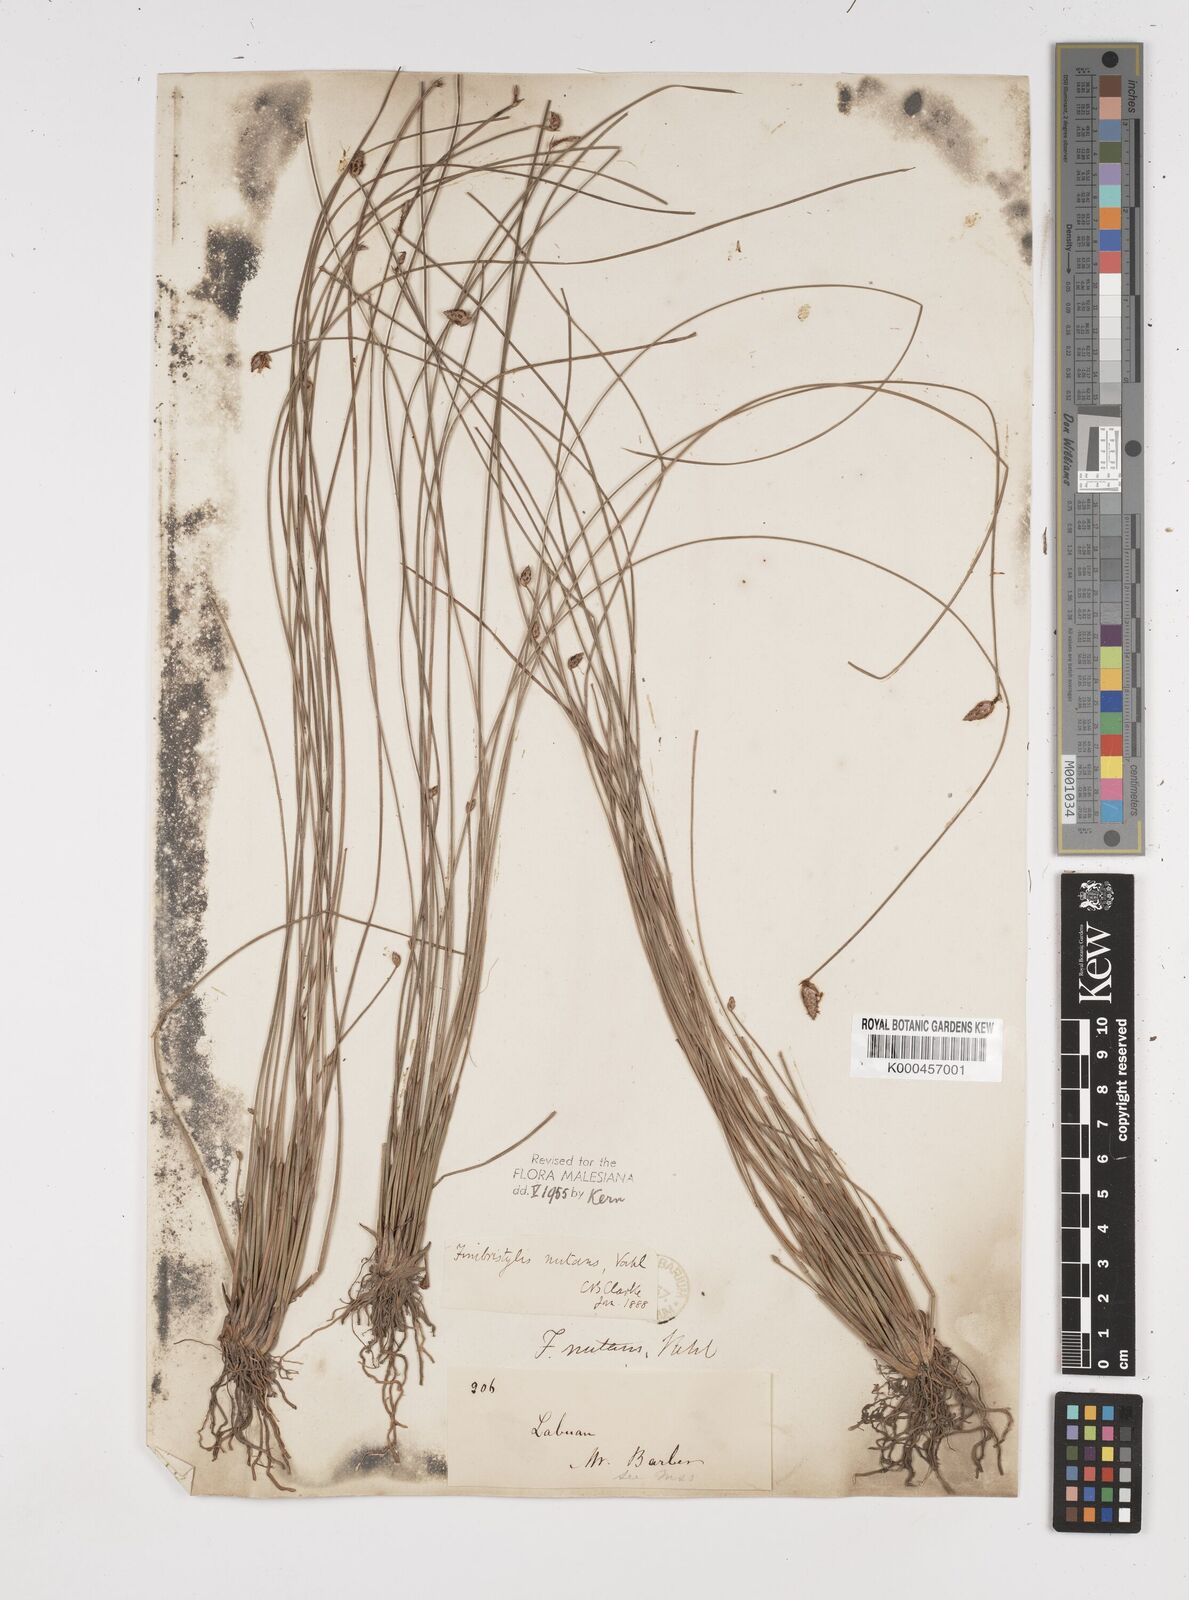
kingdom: Plantae
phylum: Tracheophyta
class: Liliopsida
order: Poales
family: Cyperaceae
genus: Fimbristylis
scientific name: Fimbristylis nutans
